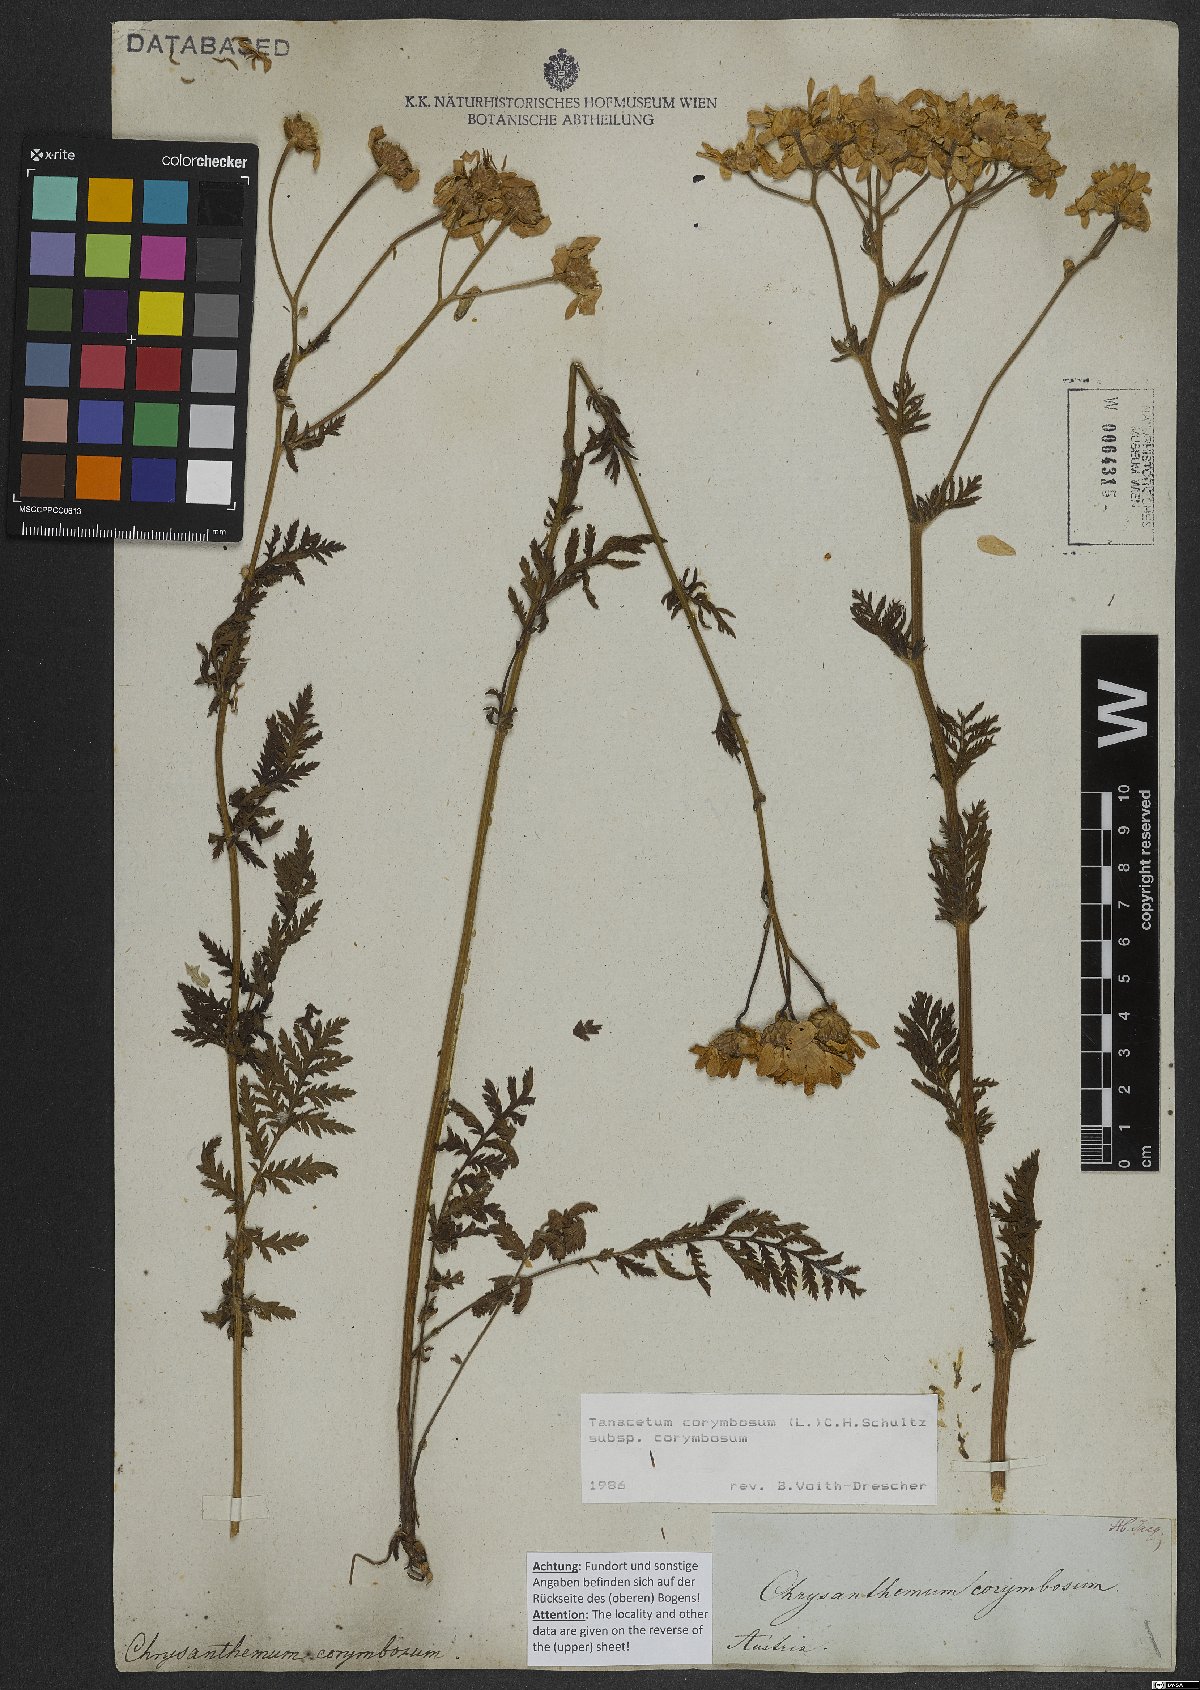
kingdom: Plantae
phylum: Tracheophyta
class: Magnoliopsida
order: Asterales
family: Asteraceae
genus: Tanacetum
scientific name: Tanacetum corymbosum
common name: Scentless feverfew
